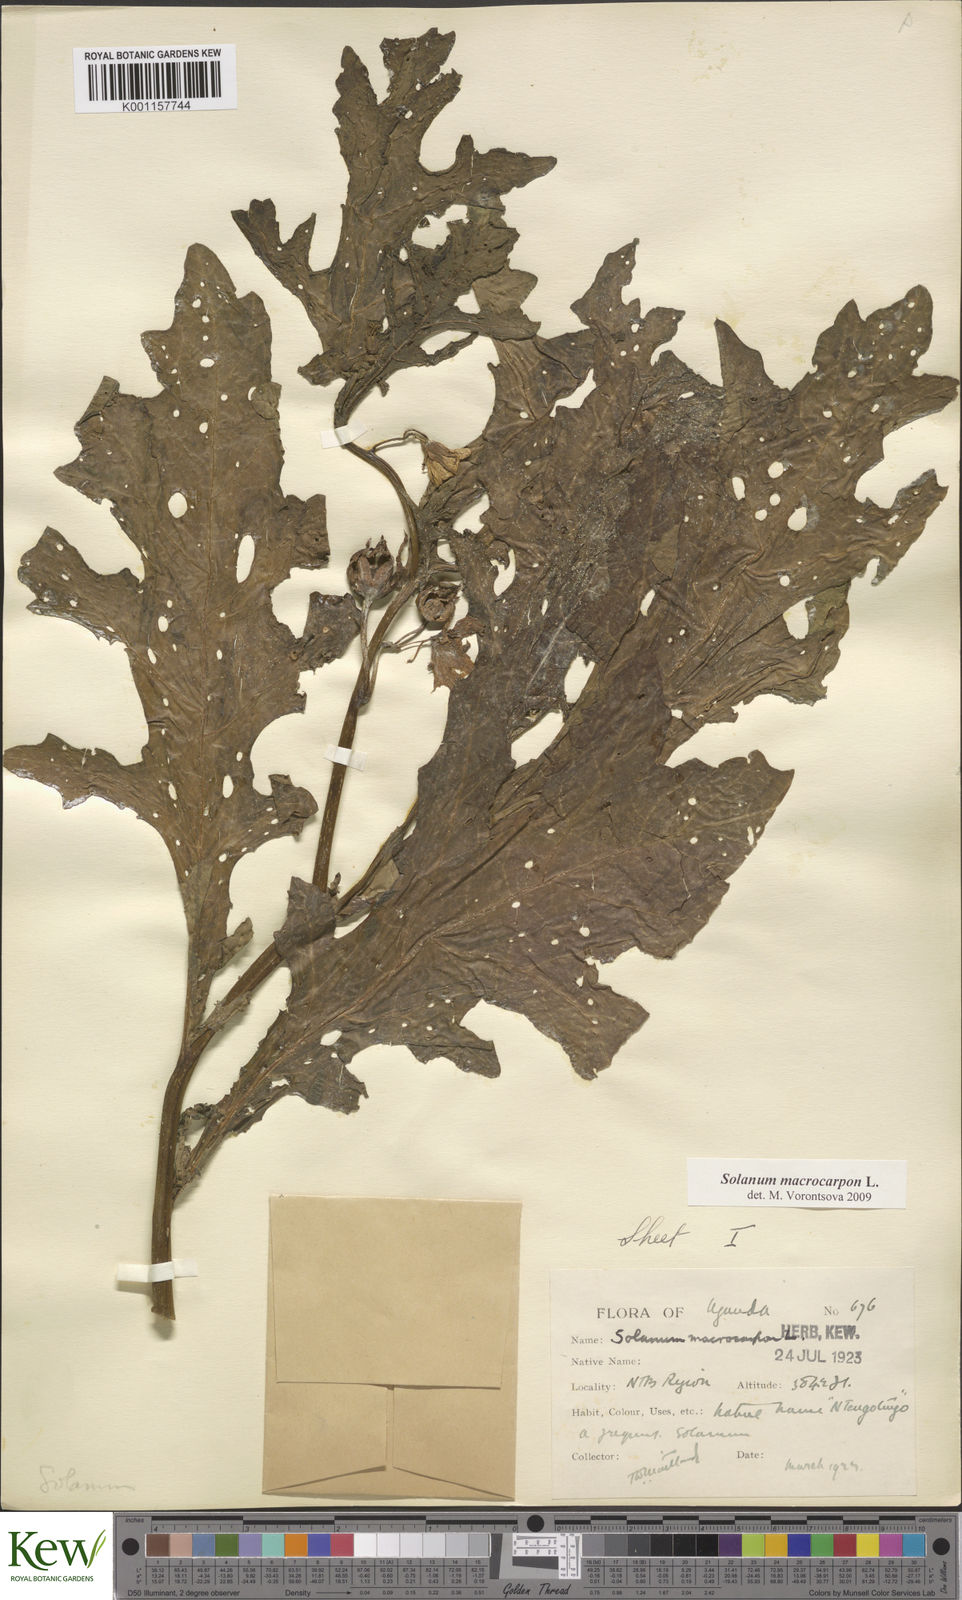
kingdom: Plantae
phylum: Tracheophyta
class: Magnoliopsida
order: Solanales
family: Solanaceae
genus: Solanum
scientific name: Solanum macrocarpon
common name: African eggplant
